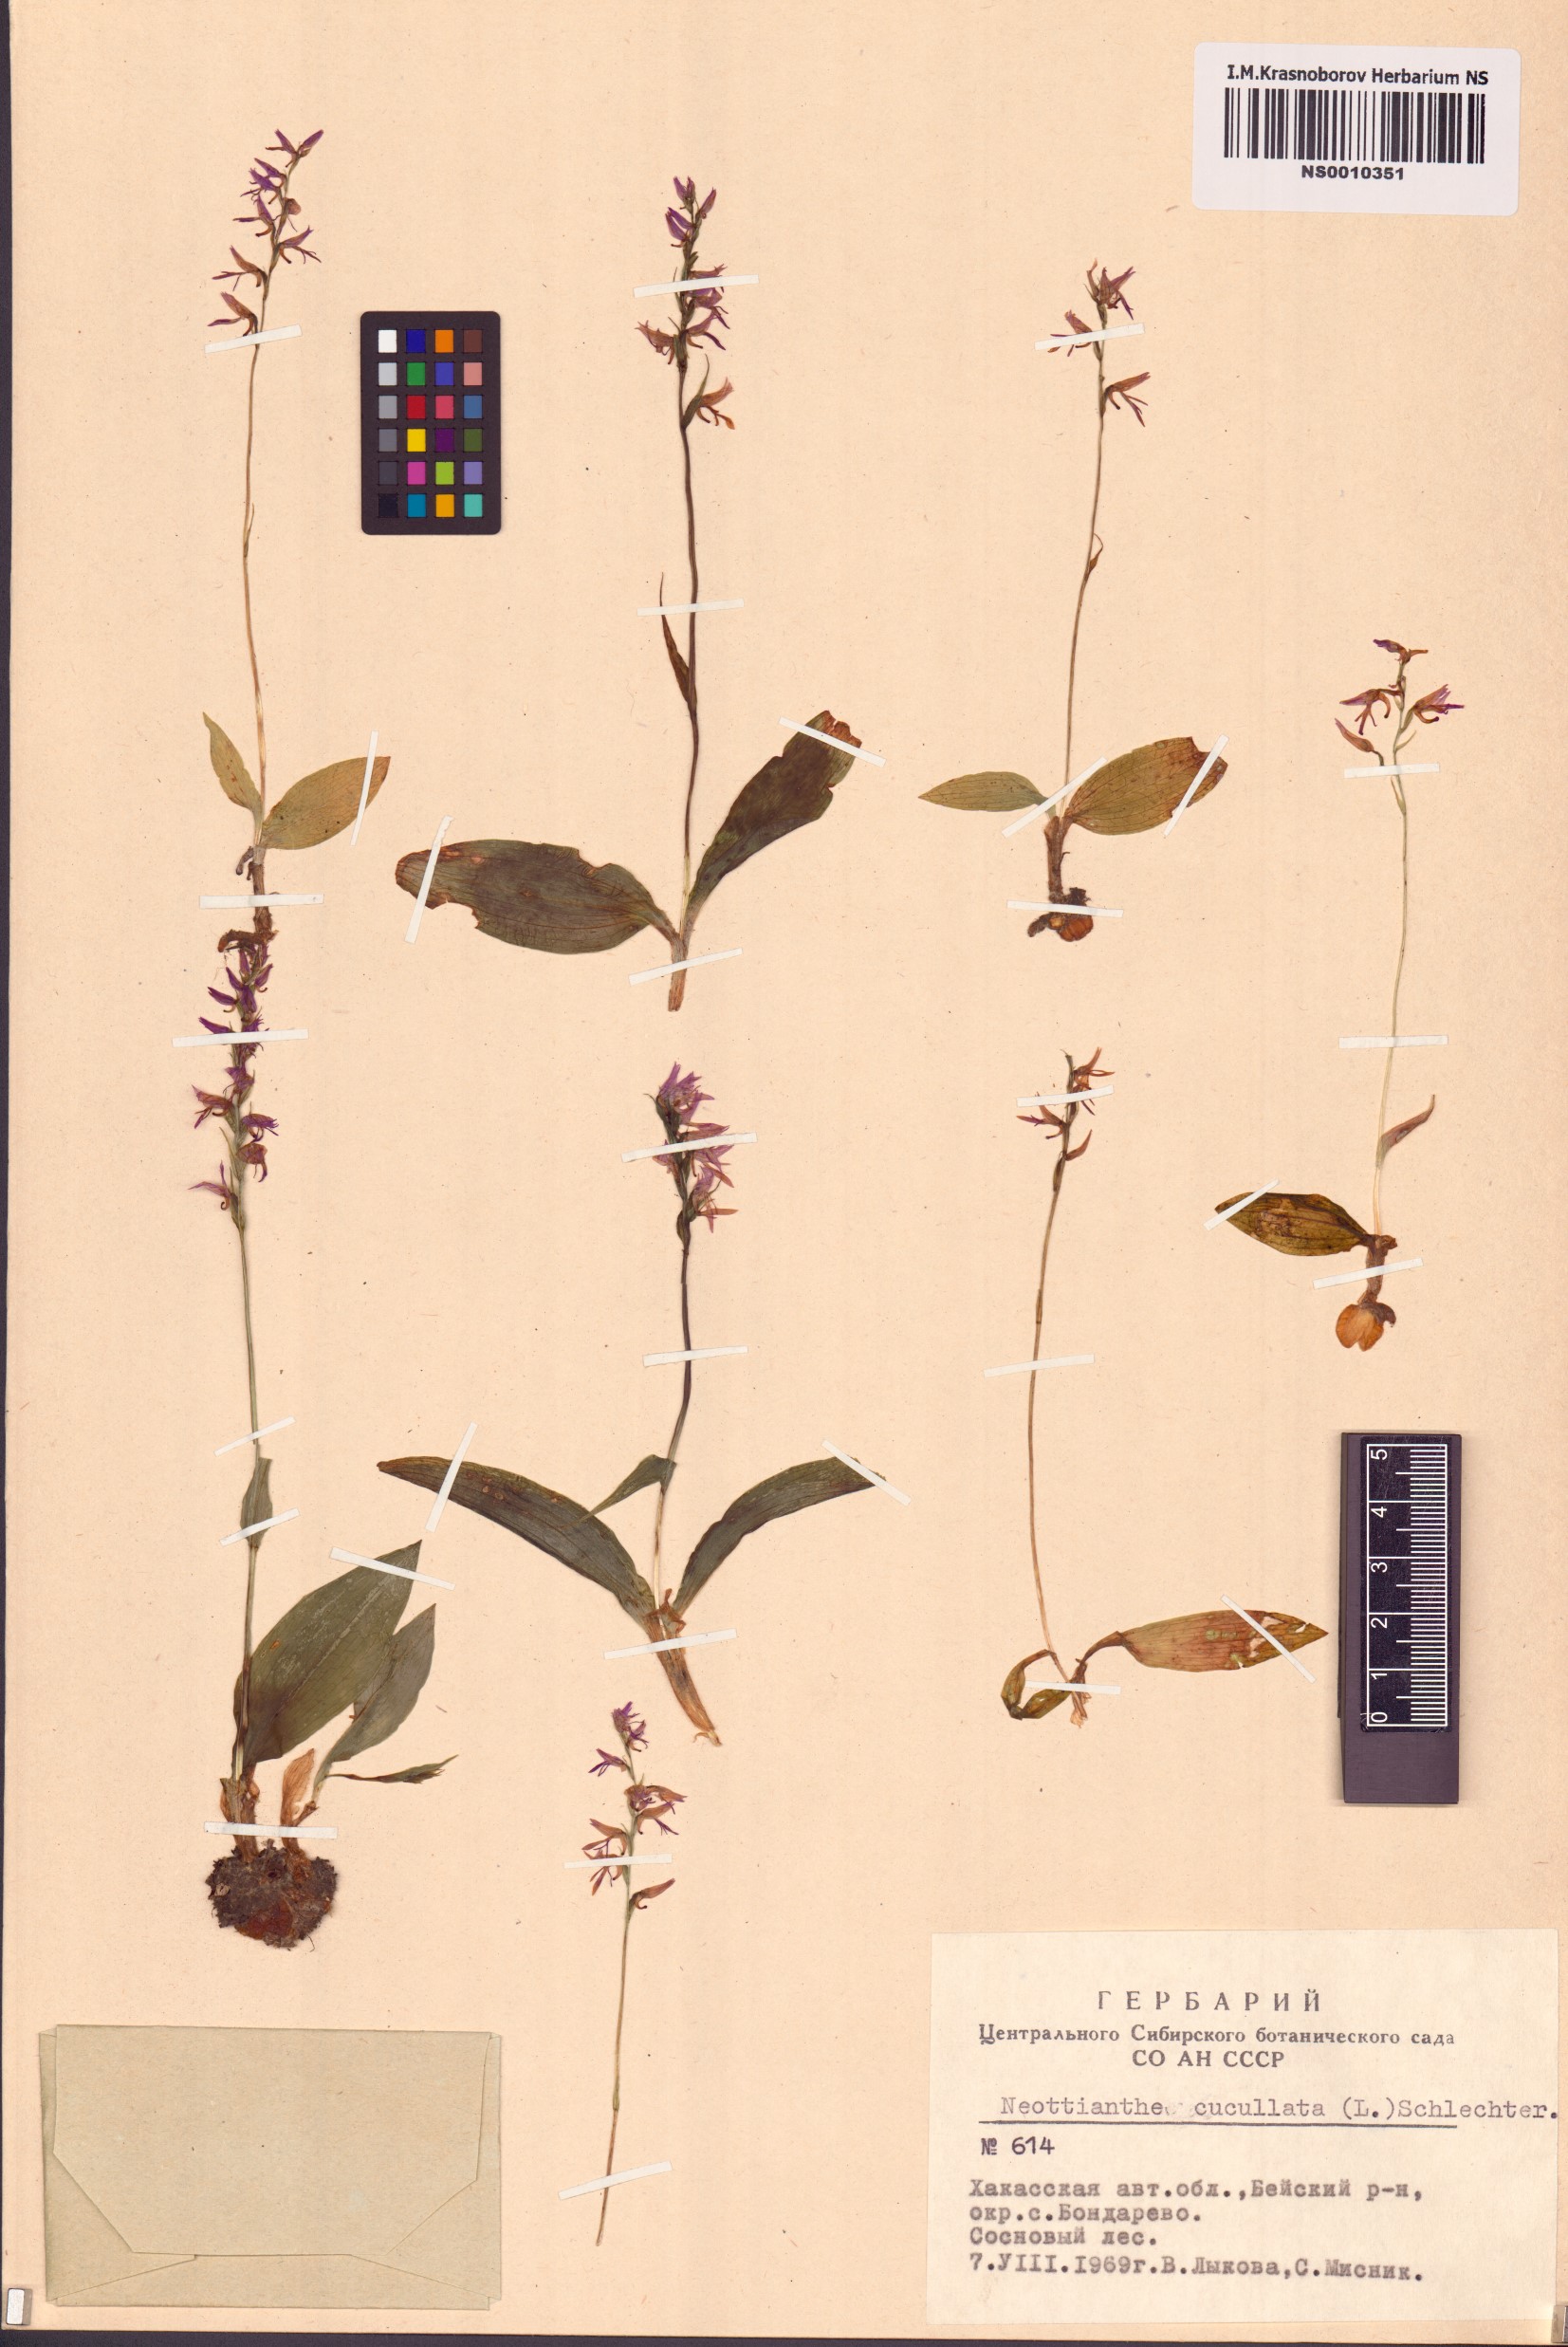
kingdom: Plantae
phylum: Tracheophyta
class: Liliopsida
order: Asparagales
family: Orchidaceae
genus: Hemipilia
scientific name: Hemipilia cucullata
